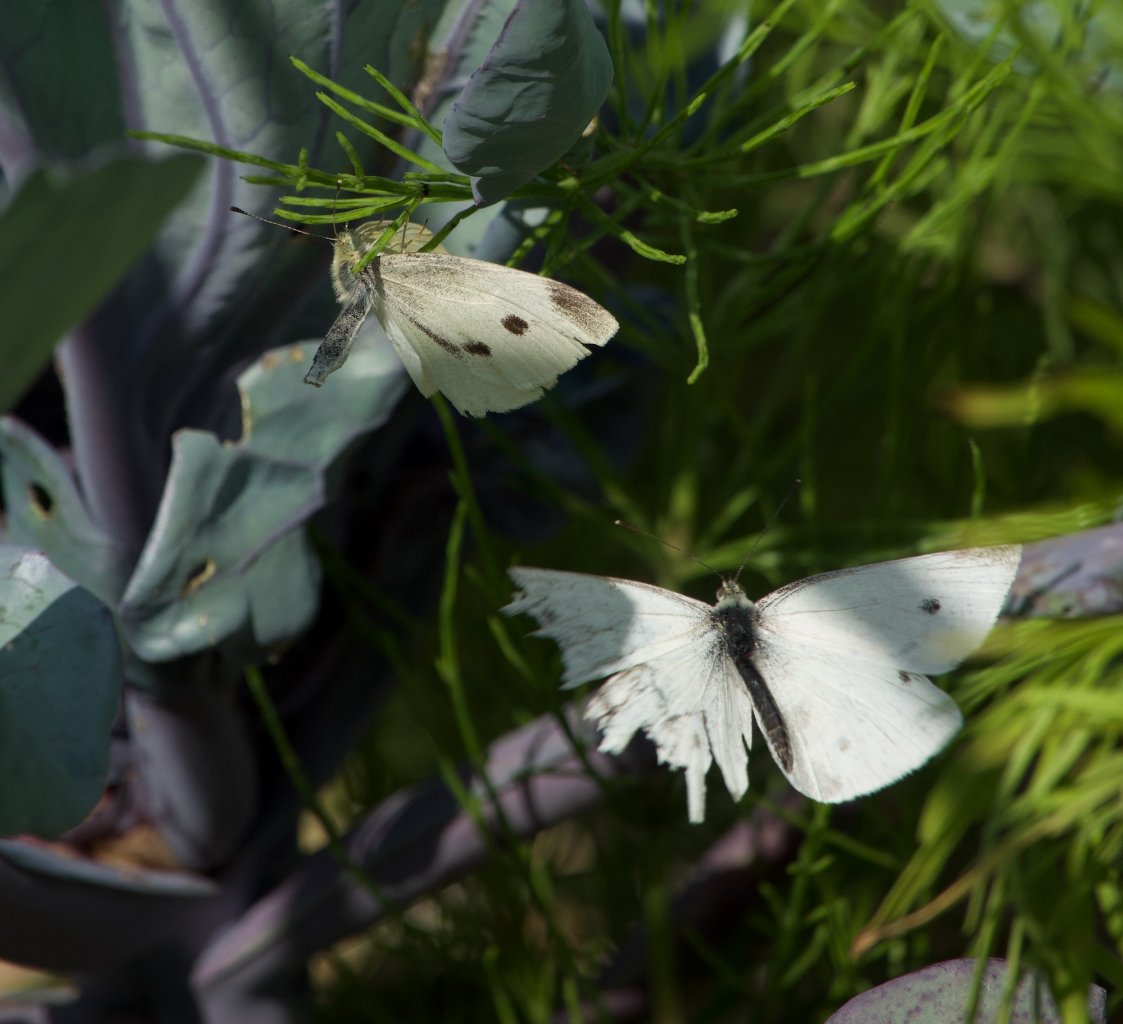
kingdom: Animalia
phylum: Arthropoda
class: Insecta
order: Lepidoptera
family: Pieridae
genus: Pieris
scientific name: Pieris rapae
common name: Cabbage White
